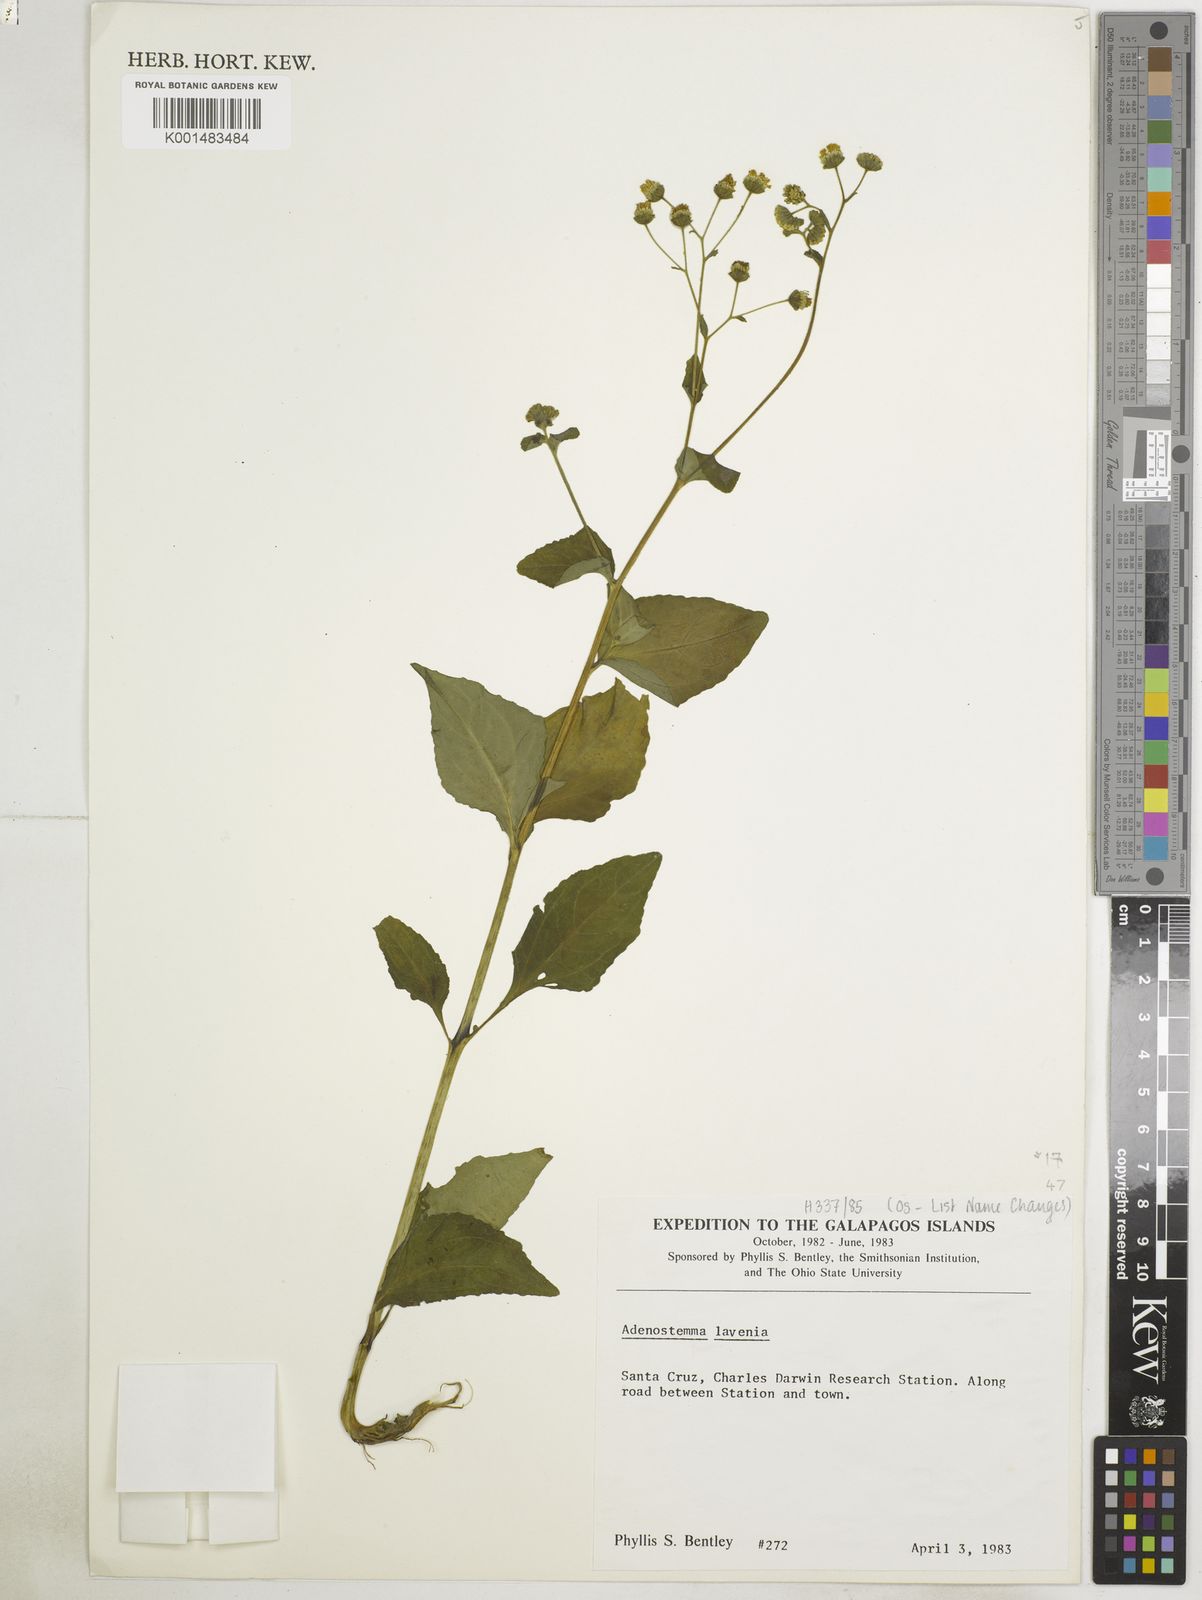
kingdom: Plantae
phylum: Tracheophyta
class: Magnoliopsida
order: Asterales
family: Asteraceae
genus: Adenostemma
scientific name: Adenostemma lavenia
